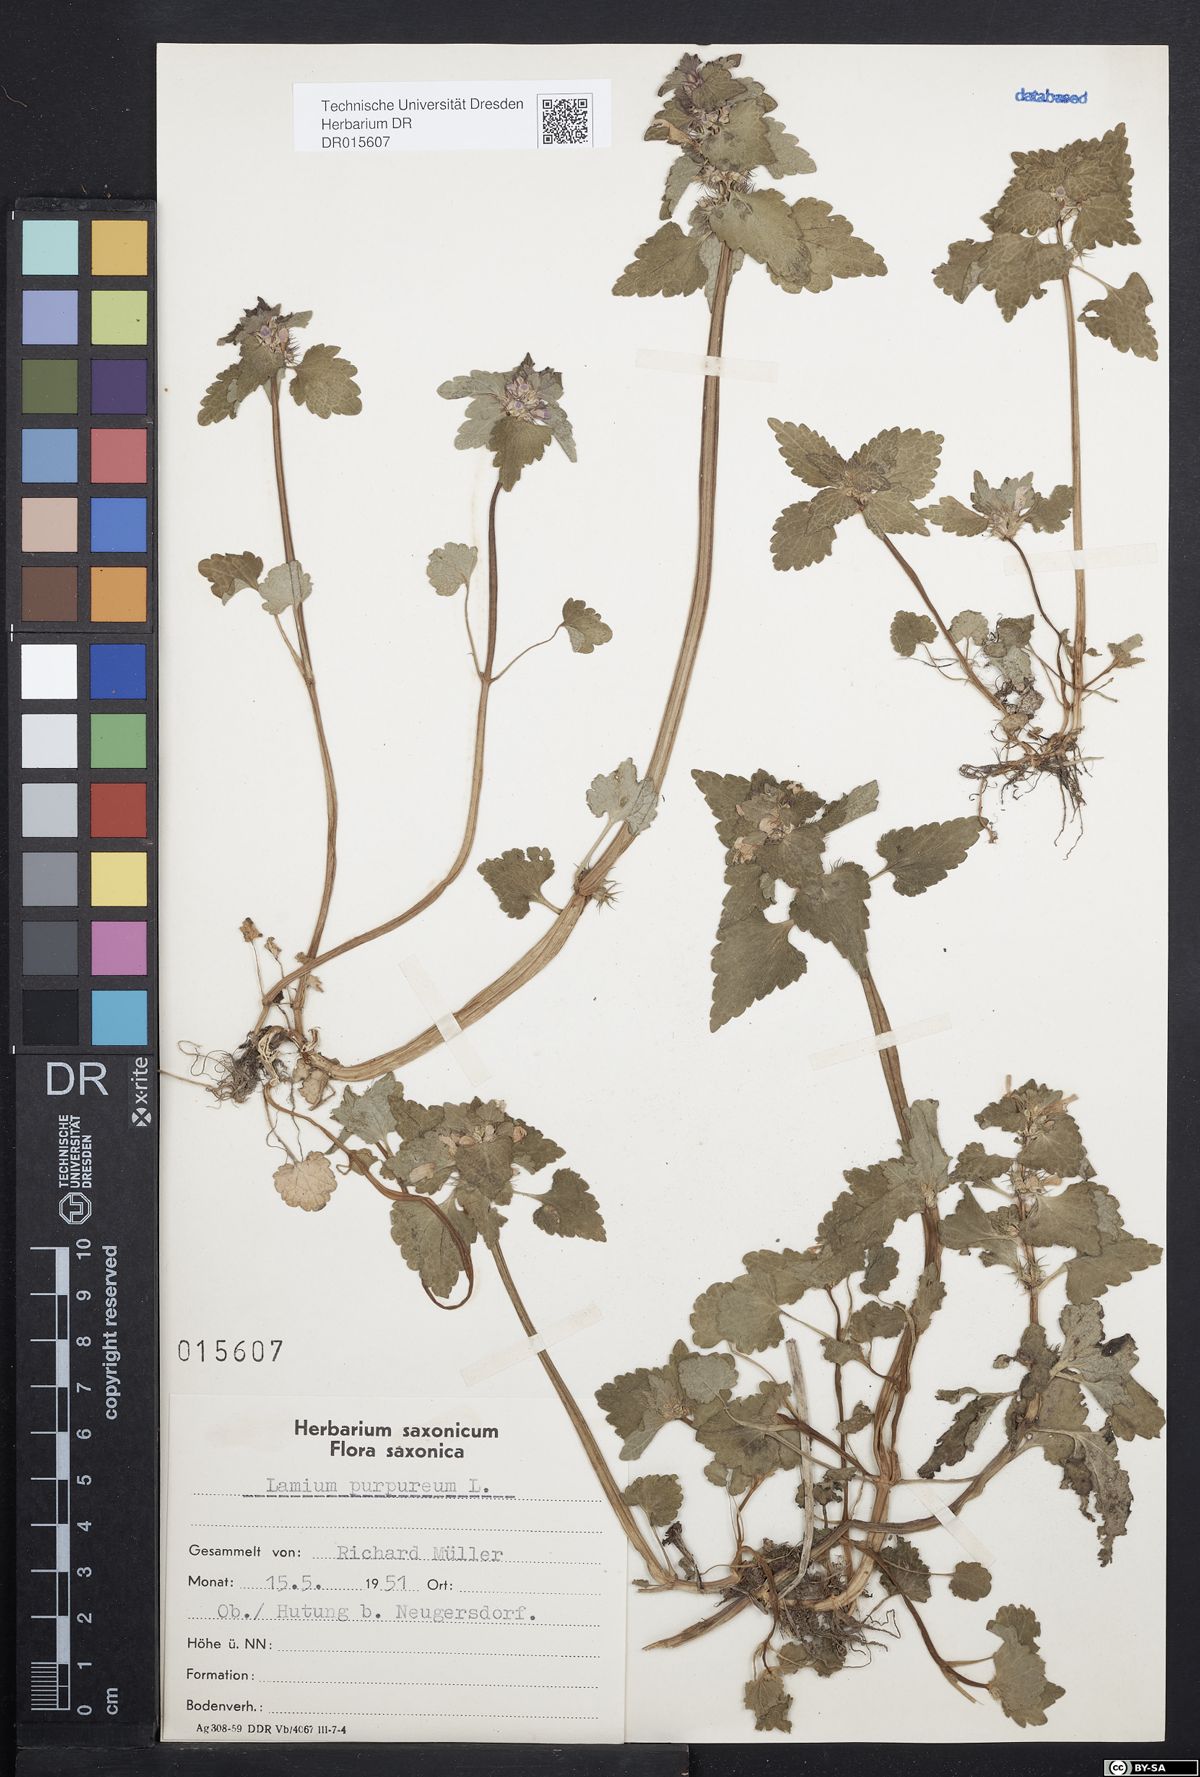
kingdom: Plantae
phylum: Tracheophyta
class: Magnoliopsida
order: Lamiales
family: Lamiaceae
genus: Lamium
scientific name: Lamium purpureum
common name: Red dead-nettle
